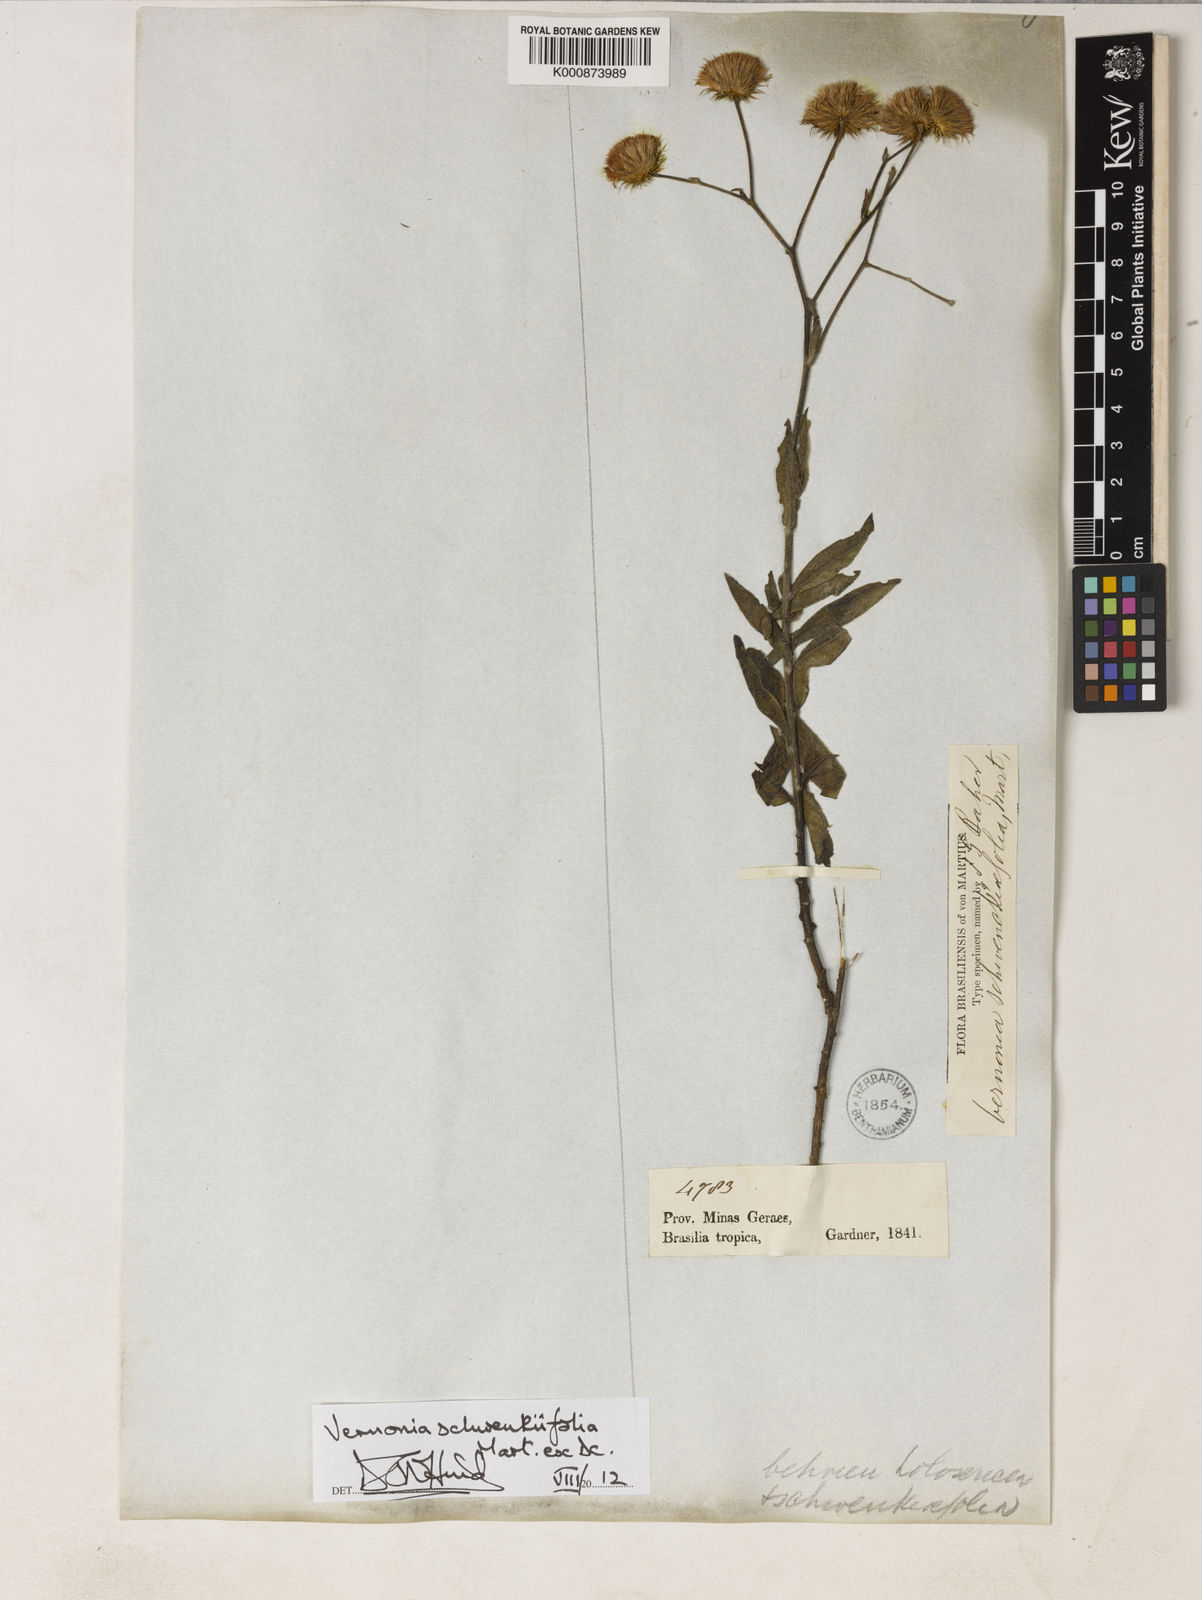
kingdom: Plantae
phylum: Tracheophyta
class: Magnoliopsida
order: Asterales
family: Asteraceae
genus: Vernonia
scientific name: Vernonia
